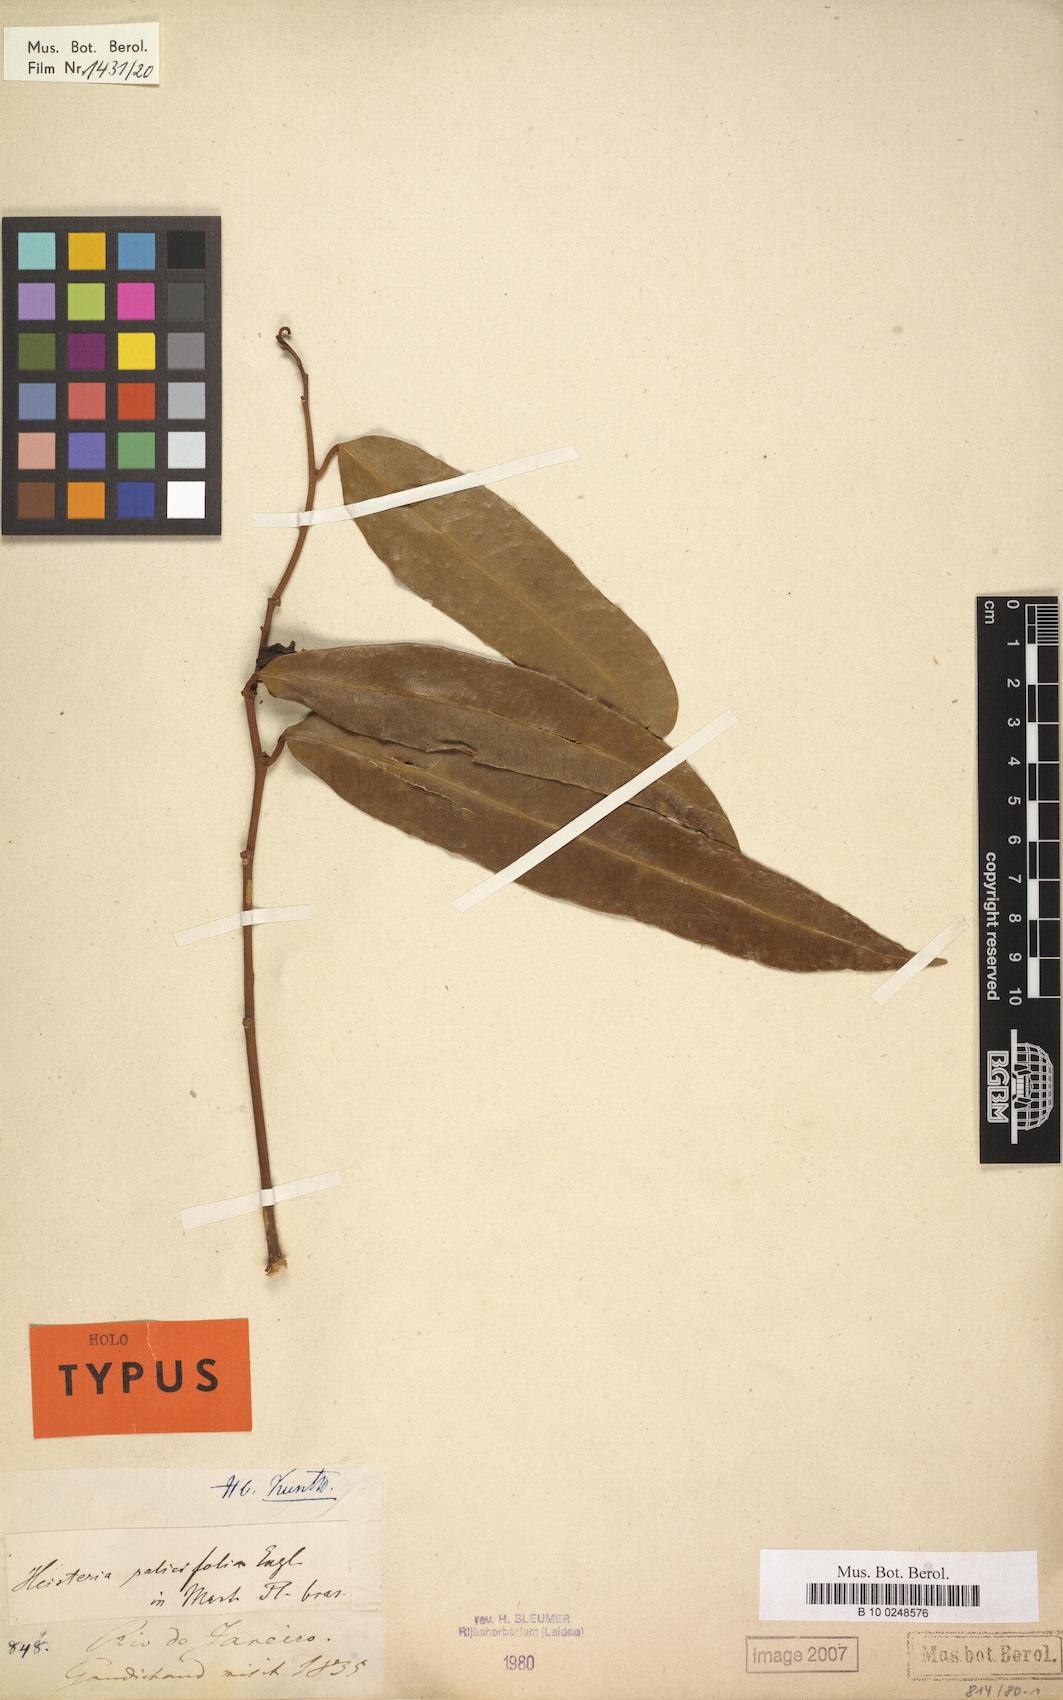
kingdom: Plantae
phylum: Tracheophyta
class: Magnoliopsida
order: Santalales
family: Erythropalaceae
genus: Heisteria
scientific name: Heisteria salicifolia
